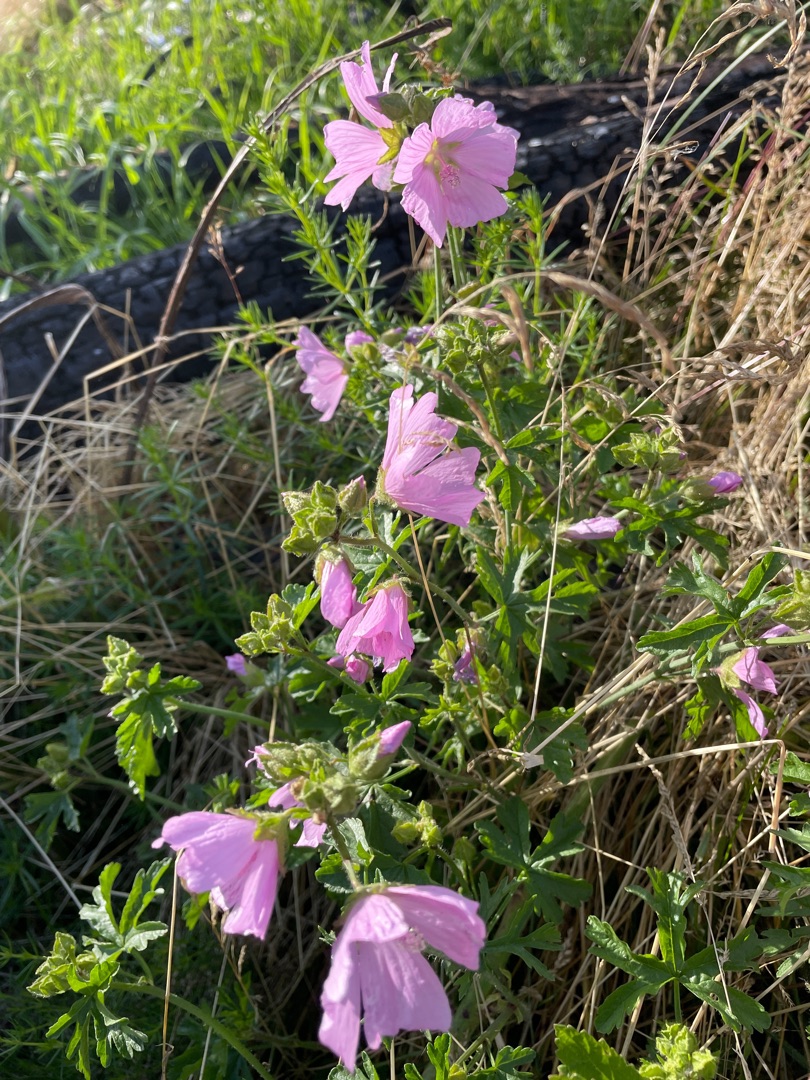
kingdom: Plantae
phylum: Tracheophyta
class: Magnoliopsida
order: Malvales
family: Malvaceae
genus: Malva
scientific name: Malva moschata
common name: Moskus-katost
